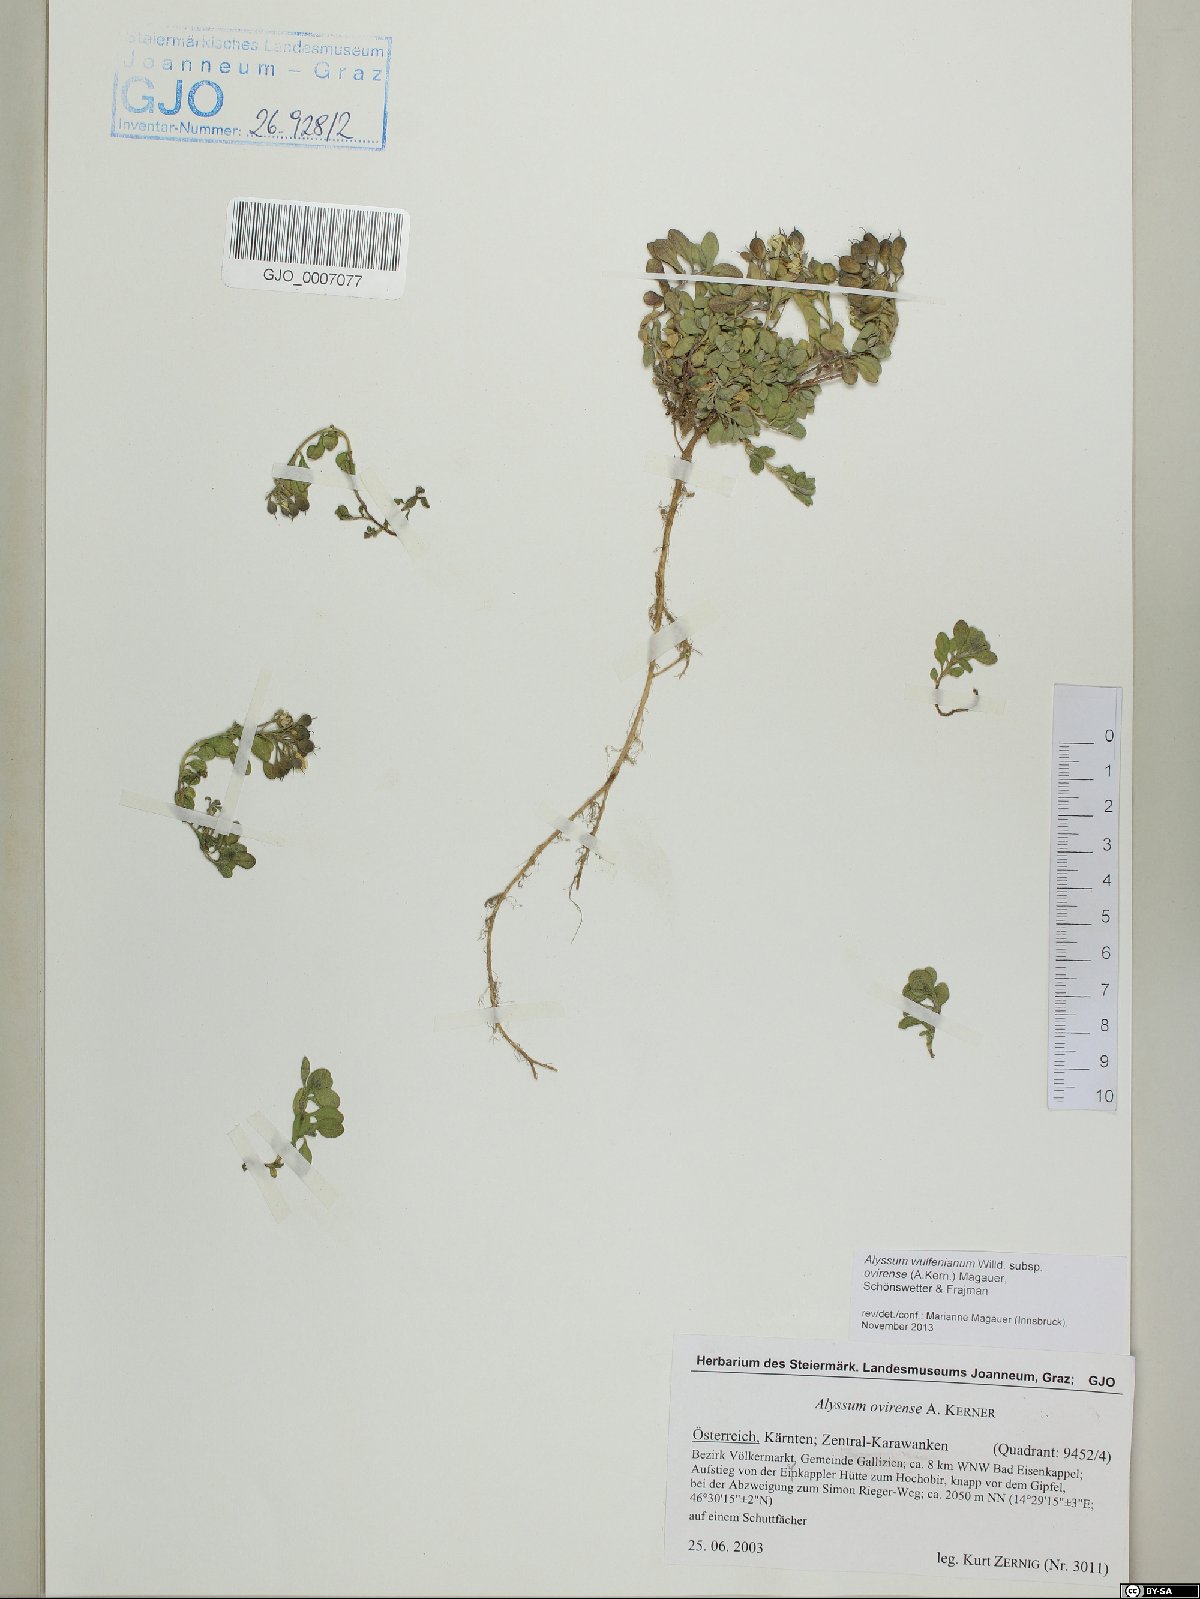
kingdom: Plantae
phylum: Tracheophyta
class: Magnoliopsida
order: Brassicales
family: Brassicaceae
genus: Alyssum
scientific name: Alyssum wulfenianum
